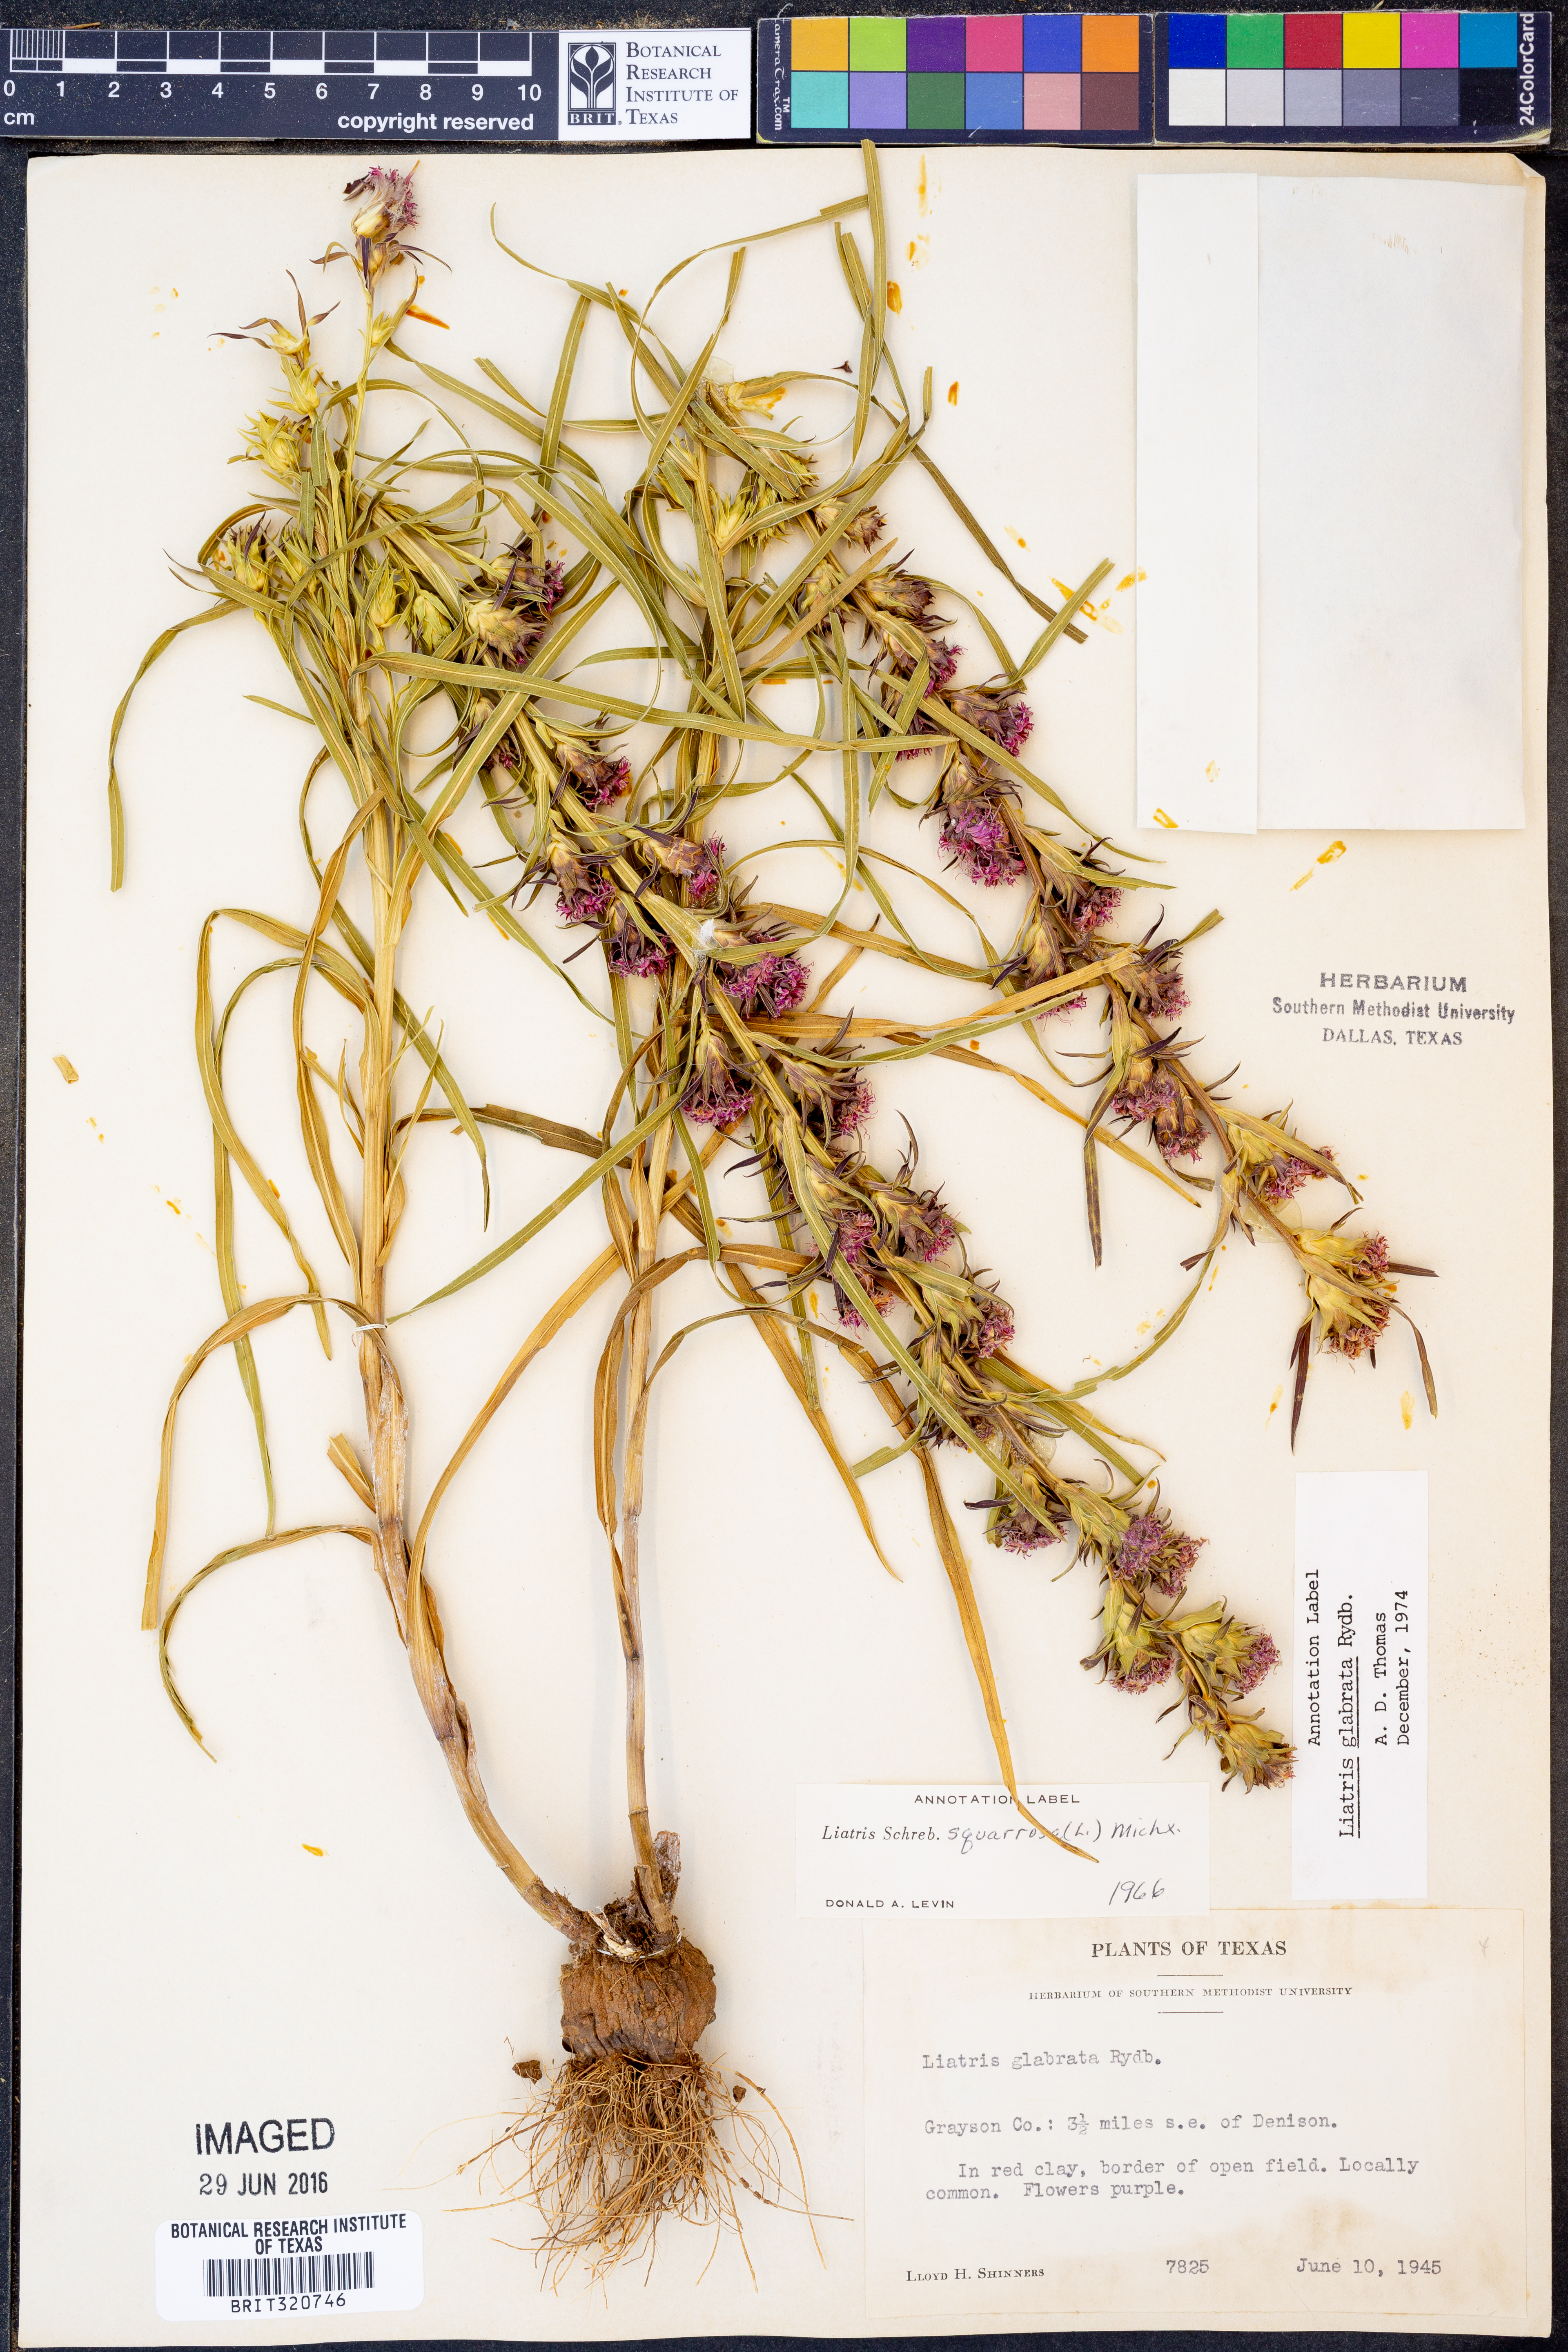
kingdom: Plantae
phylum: Tracheophyta
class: Magnoliopsida
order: Asterales
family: Asteraceae
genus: Liatris
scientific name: Liatris spicata
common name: Florist gayfeather
